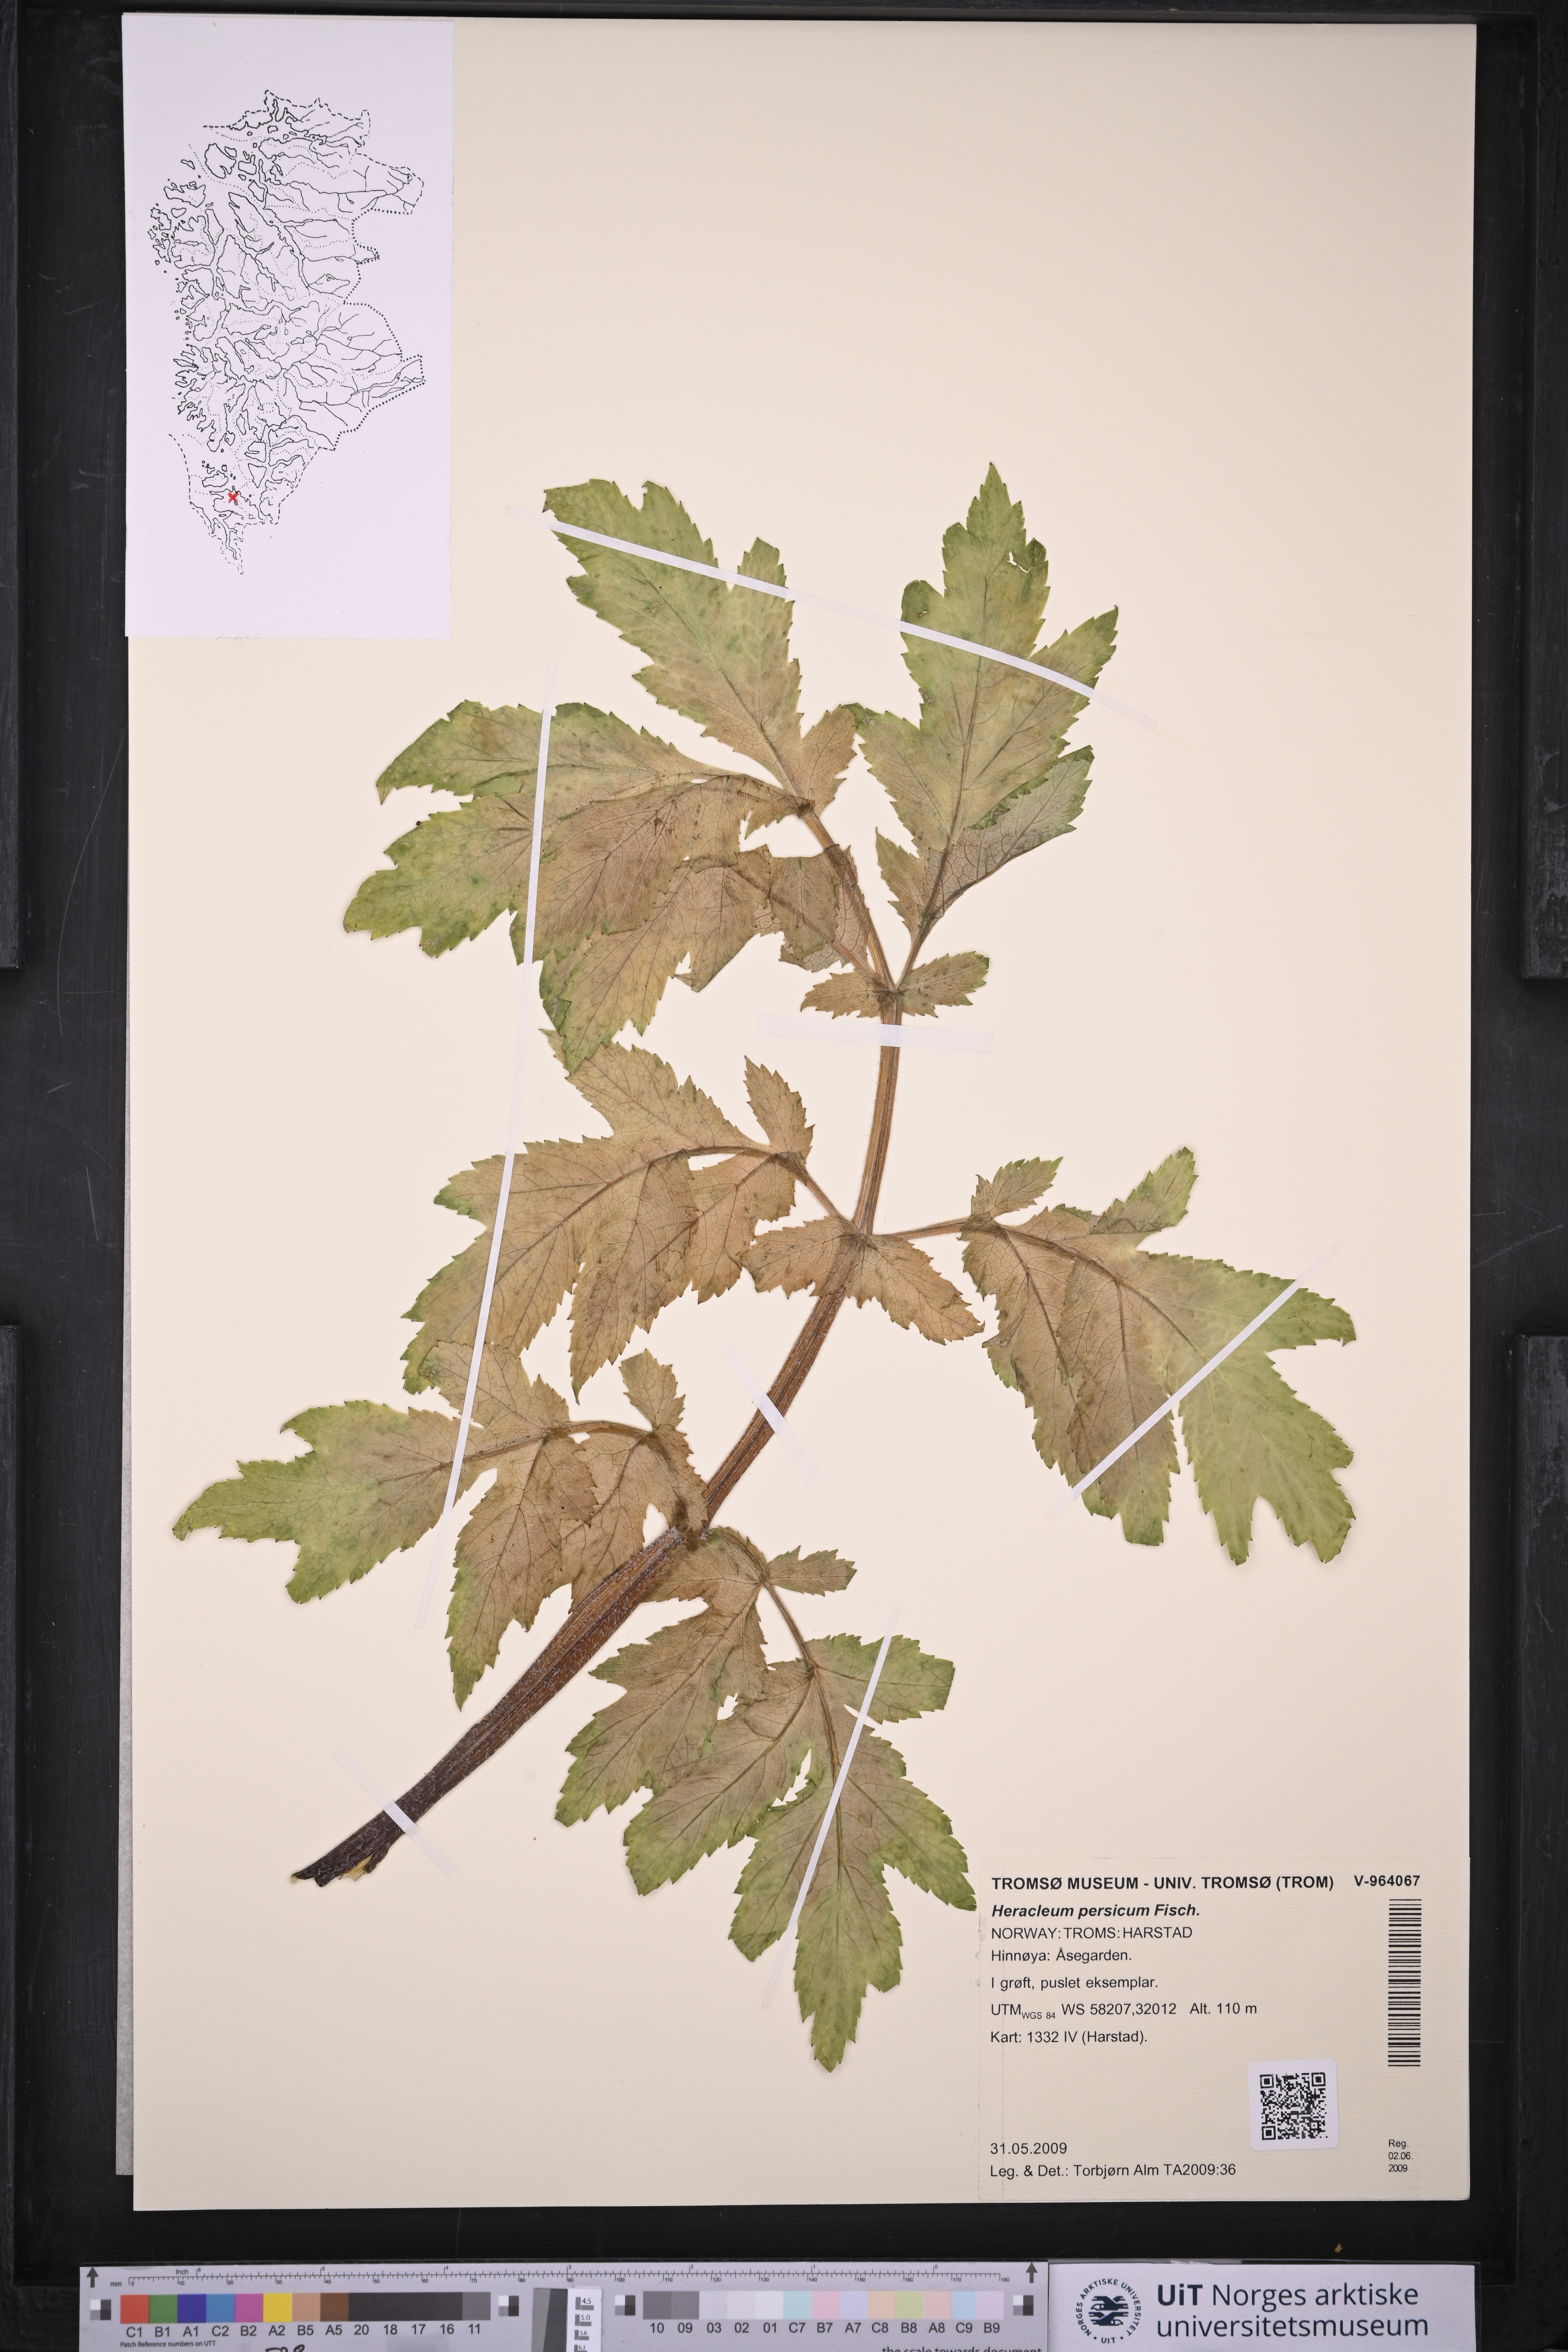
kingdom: Plantae
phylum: Tracheophyta
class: Magnoliopsida
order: Apiales
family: Apiaceae
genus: Heracleum
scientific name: Heracleum persicum
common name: Persian hogweed
